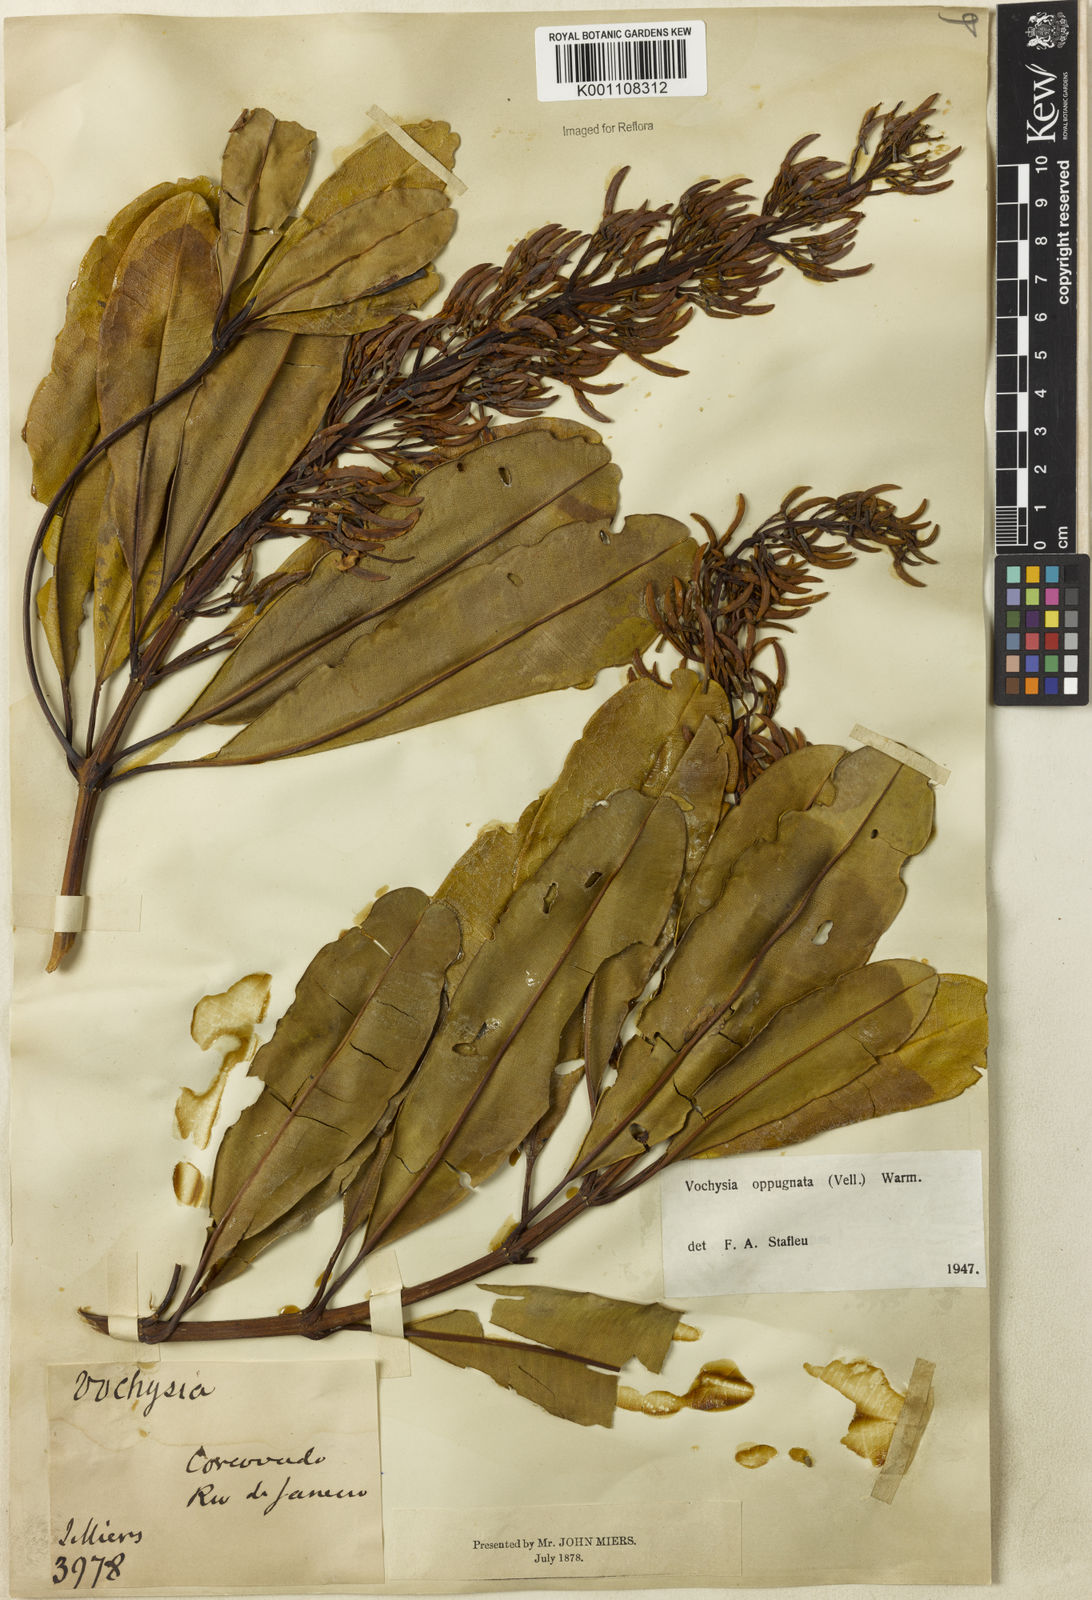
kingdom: Plantae
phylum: Tracheophyta
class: Magnoliopsida
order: Myrtales
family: Vochysiaceae
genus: Vochysia
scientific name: Vochysia oppugnata
